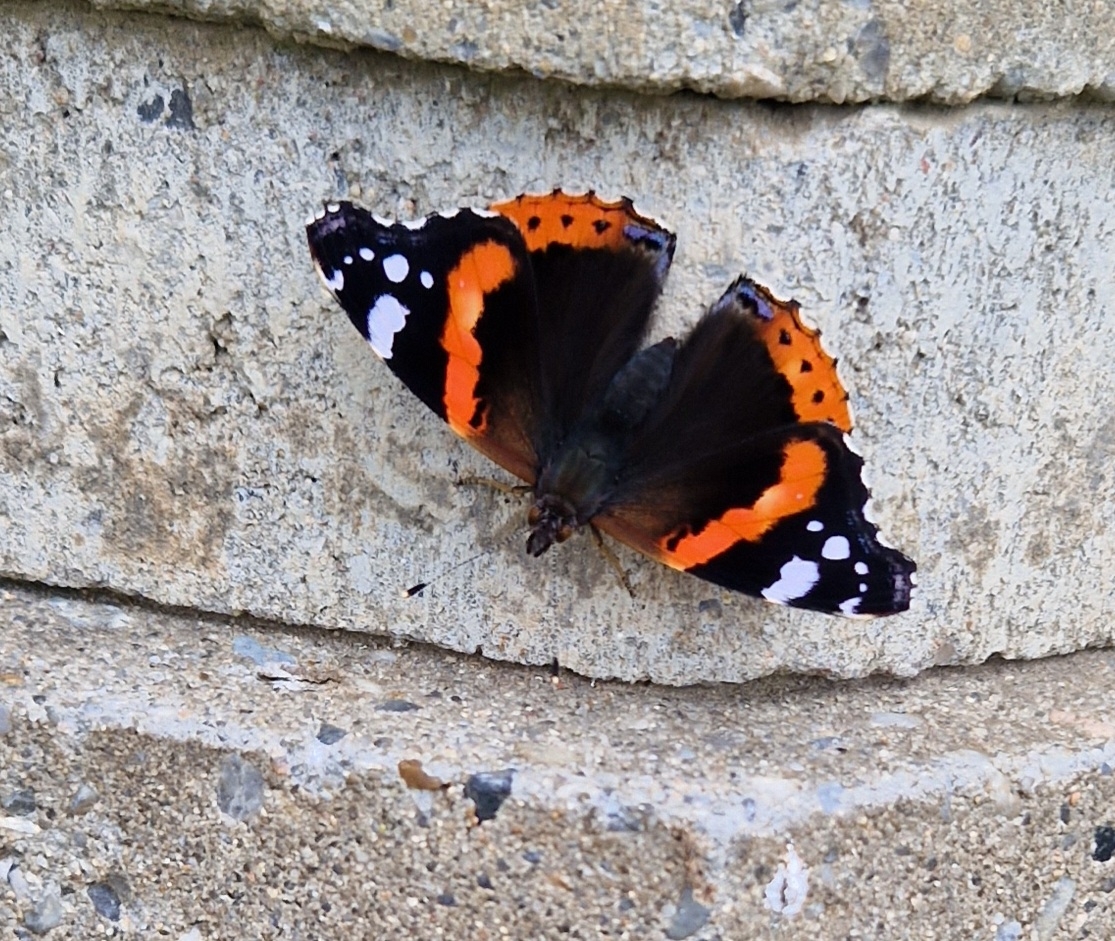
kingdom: Animalia
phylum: Arthropoda
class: Insecta
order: Lepidoptera
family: Nymphalidae
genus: Vanessa
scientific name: Vanessa atalanta
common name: Admiral
